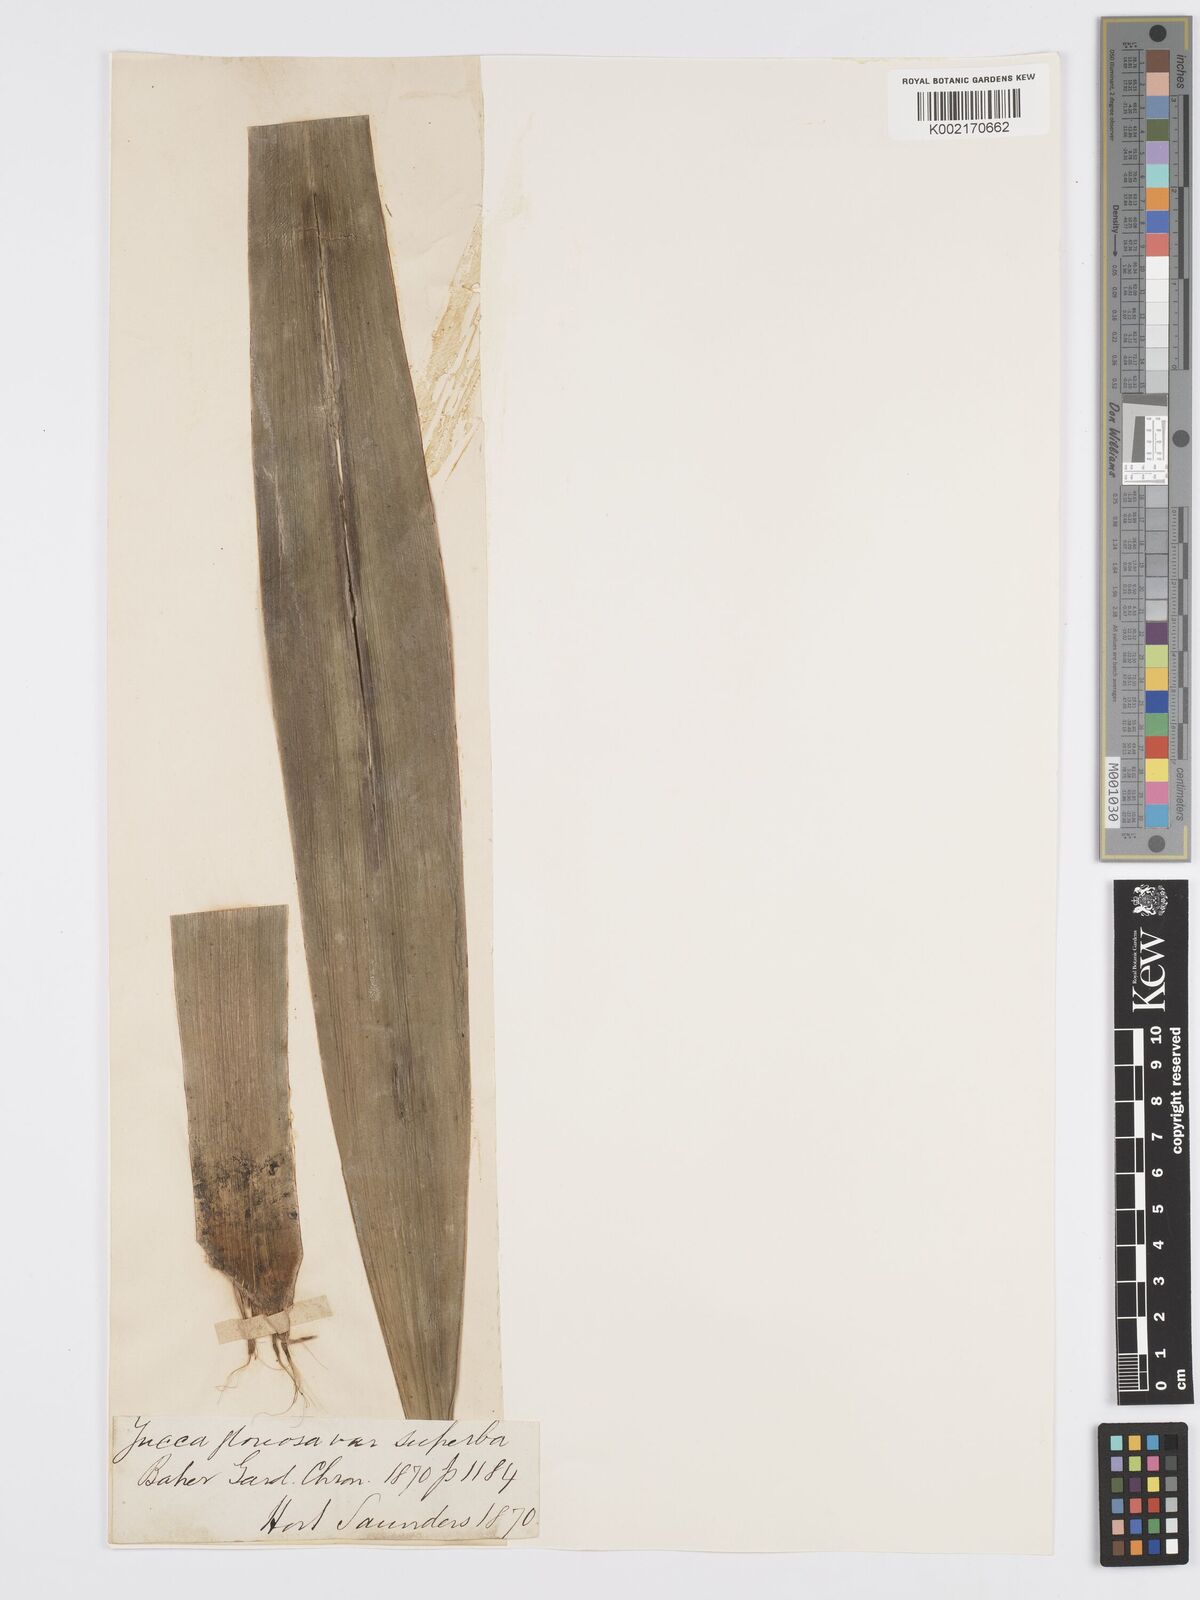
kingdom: Plantae
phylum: Tracheophyta
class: Liliopsida
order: Asparagales
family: Asparagaceae
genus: Yucca
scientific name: Yucca gloriosa
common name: Spanish-dagger
